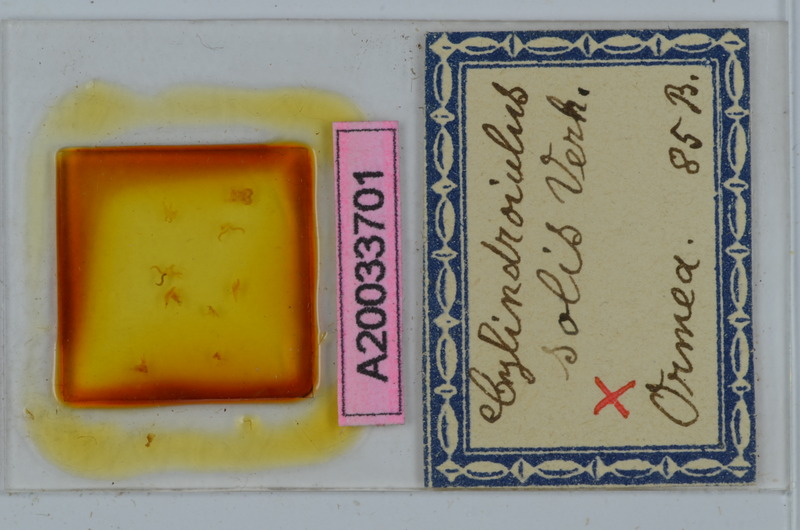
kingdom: Animalia
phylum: Arthropoda
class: Diplopoda
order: Julida
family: Julidae
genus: Cylindroiulus
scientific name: Cylindroiulus solis
